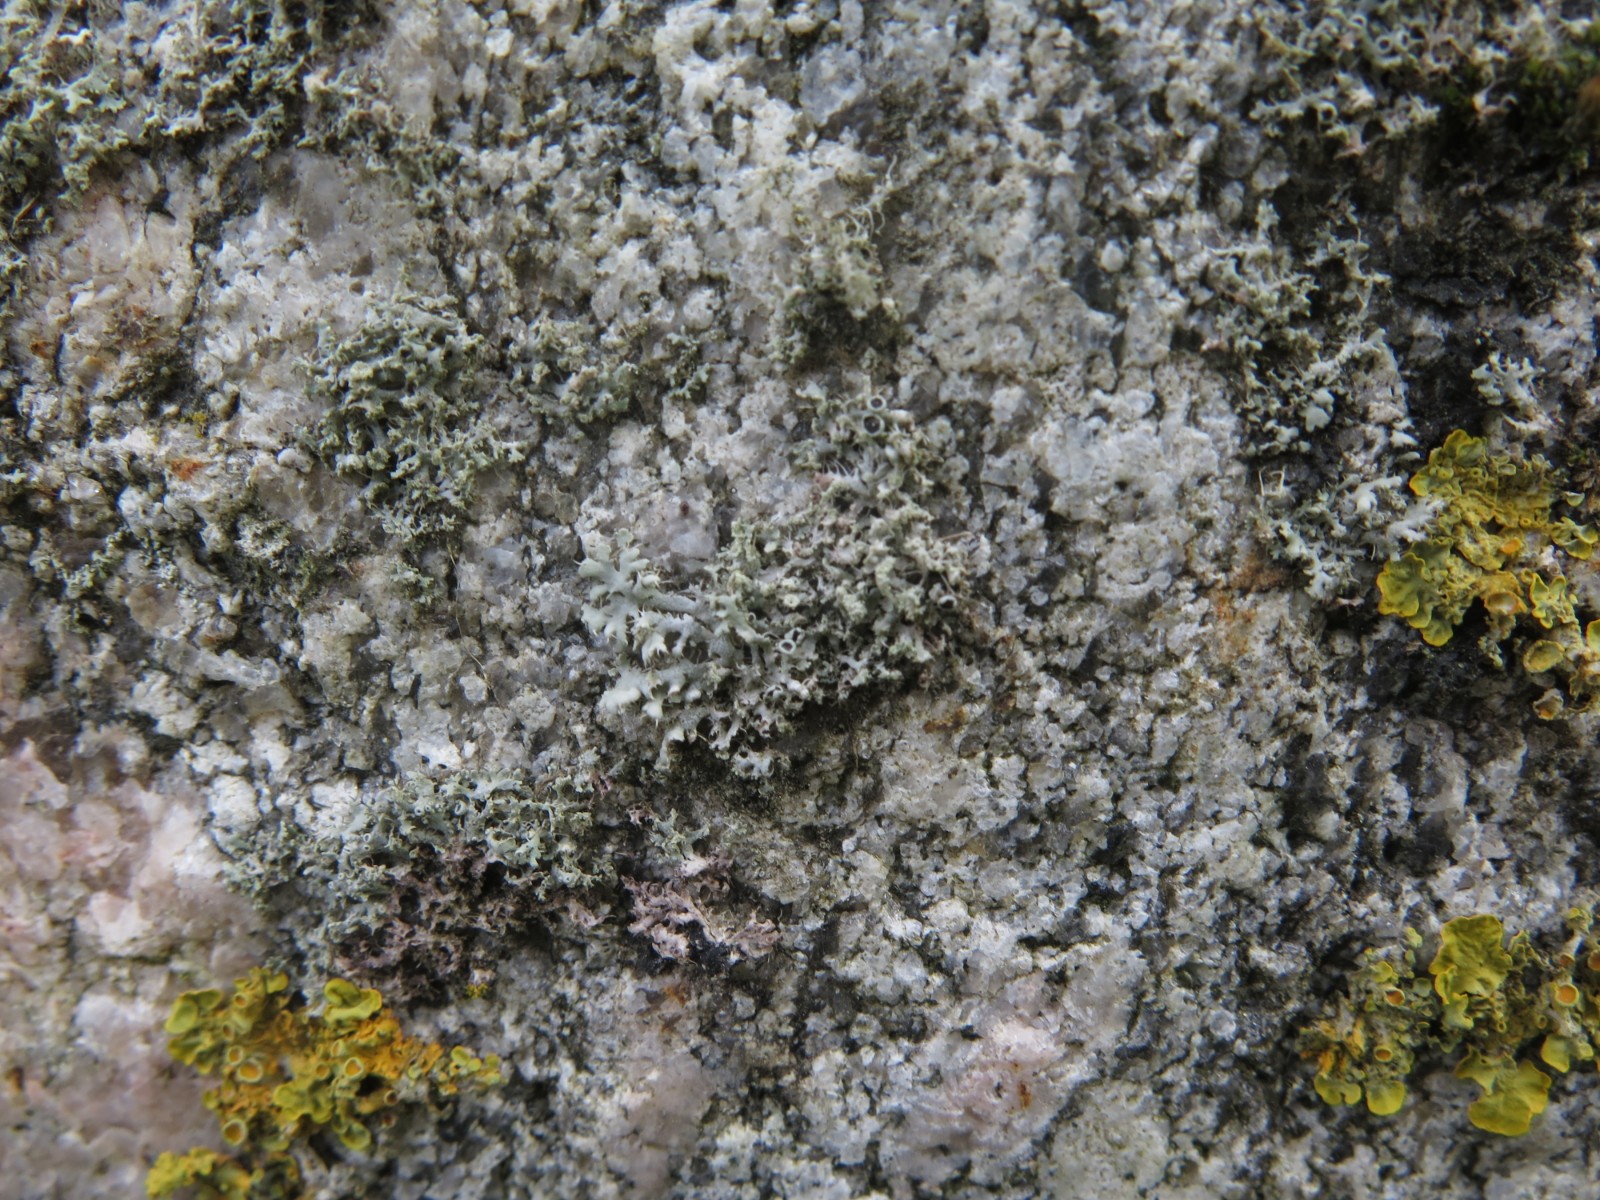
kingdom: Fungi
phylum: Ascomycota
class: Lecanoromycetes
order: Caliciales
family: Physciaceae
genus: Physcia
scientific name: Physcia adscendens
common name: hætte-rosetlav
